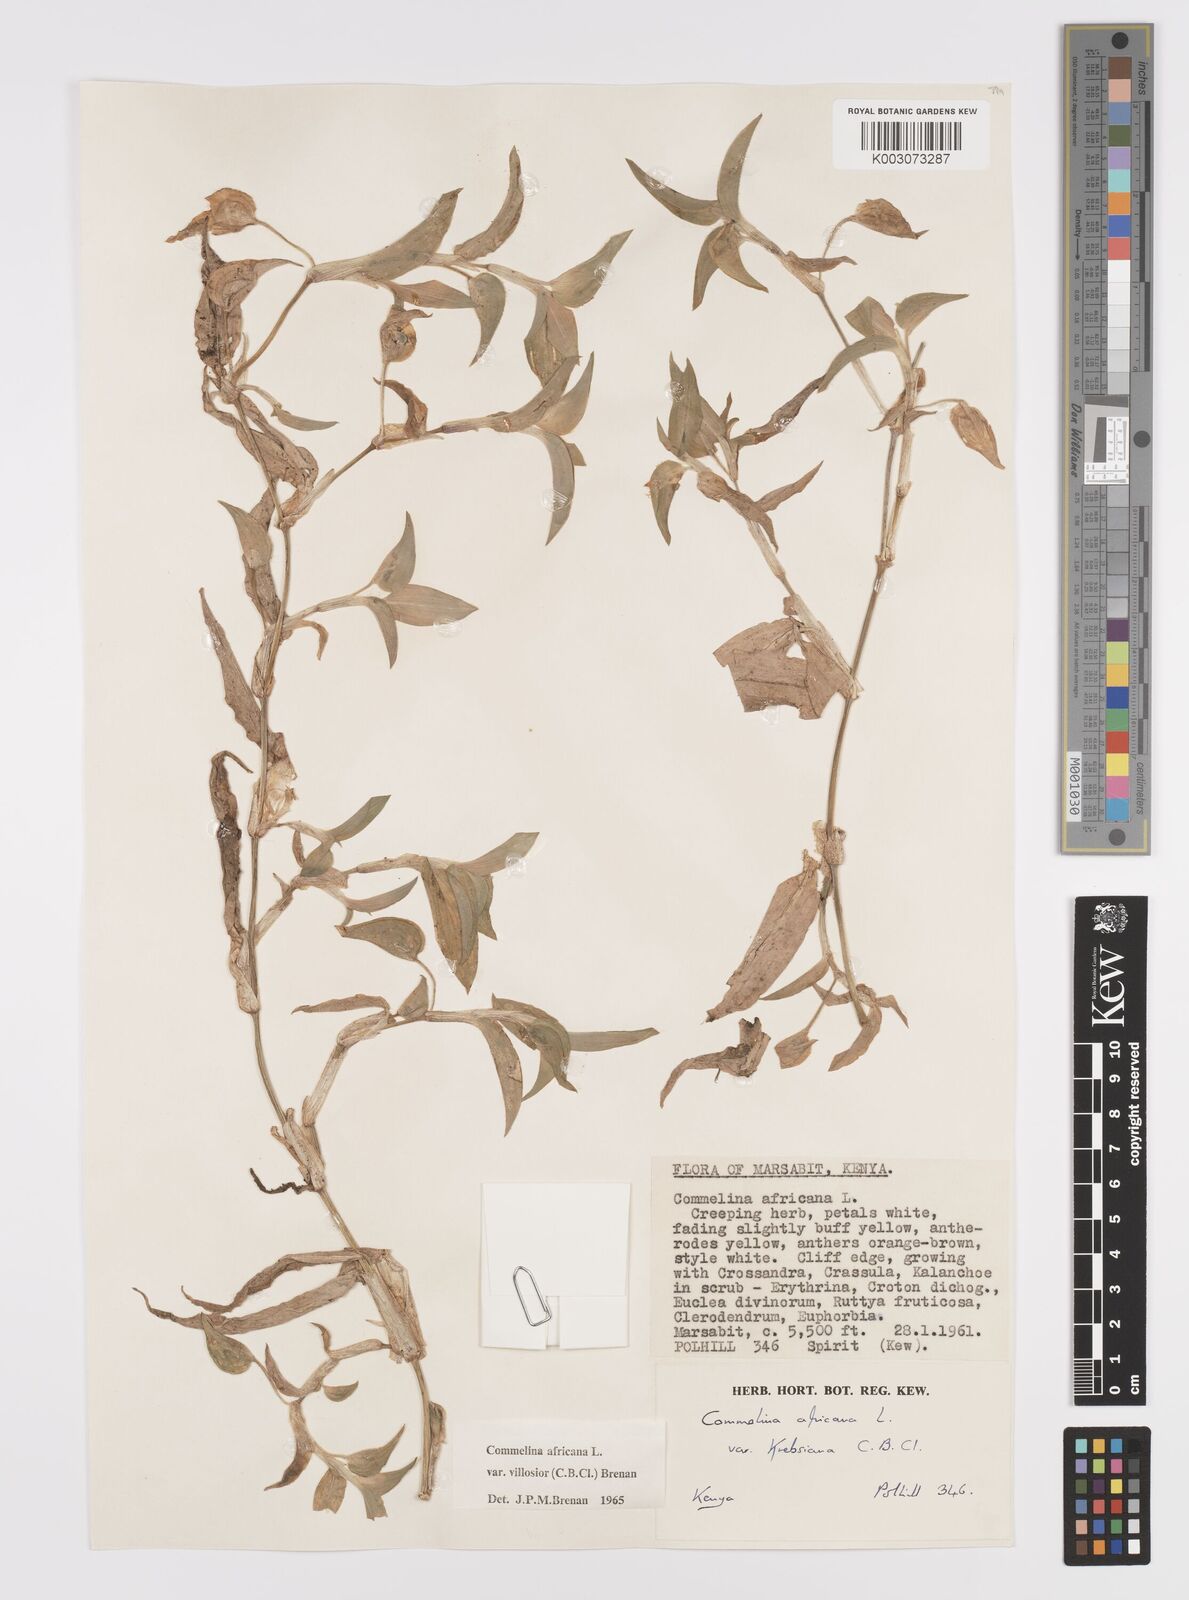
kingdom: Plantae
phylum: Tracheophyta
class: Liliopsida
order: Commelinales
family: Commelinaceae
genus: Commelina
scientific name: Commelina africana
